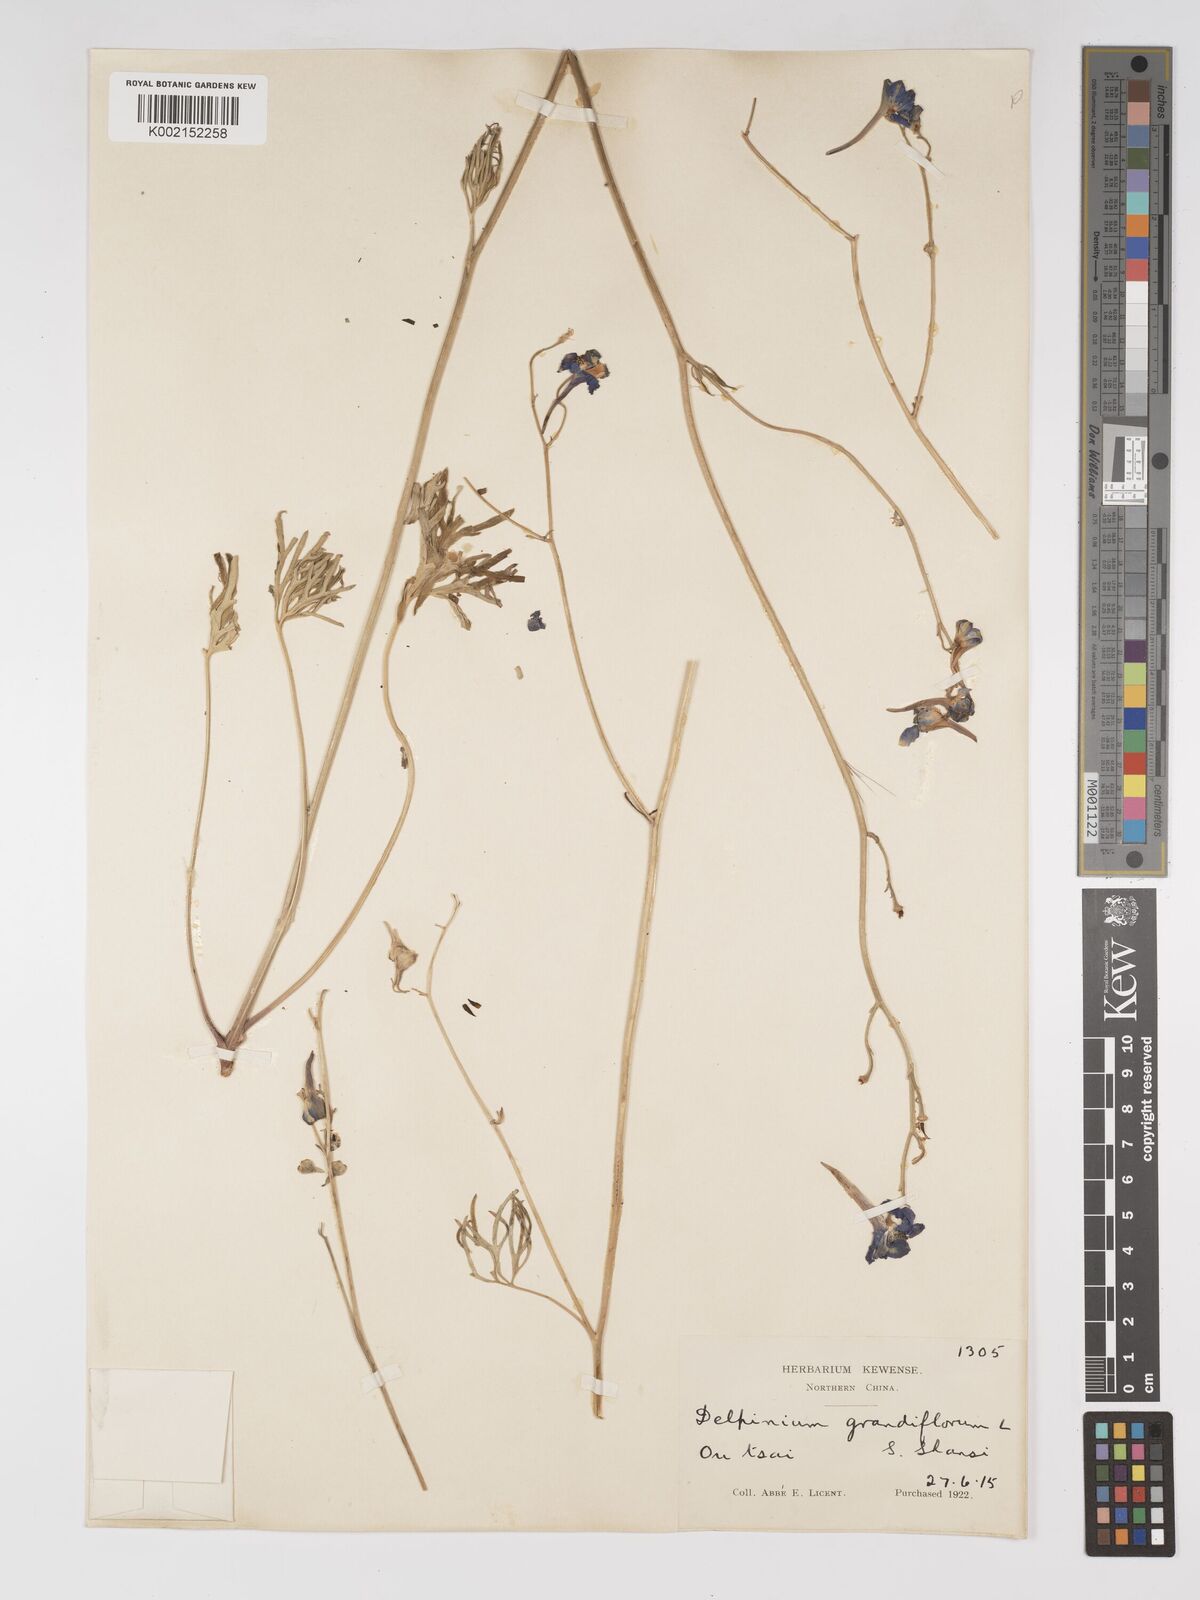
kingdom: Plantae
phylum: Tracheophyta
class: Magnoliopsida
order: Ranunculales
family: Ranunculaceae
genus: Delphinium
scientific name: Delphinium grandiflorum
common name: Siberian larkspur
